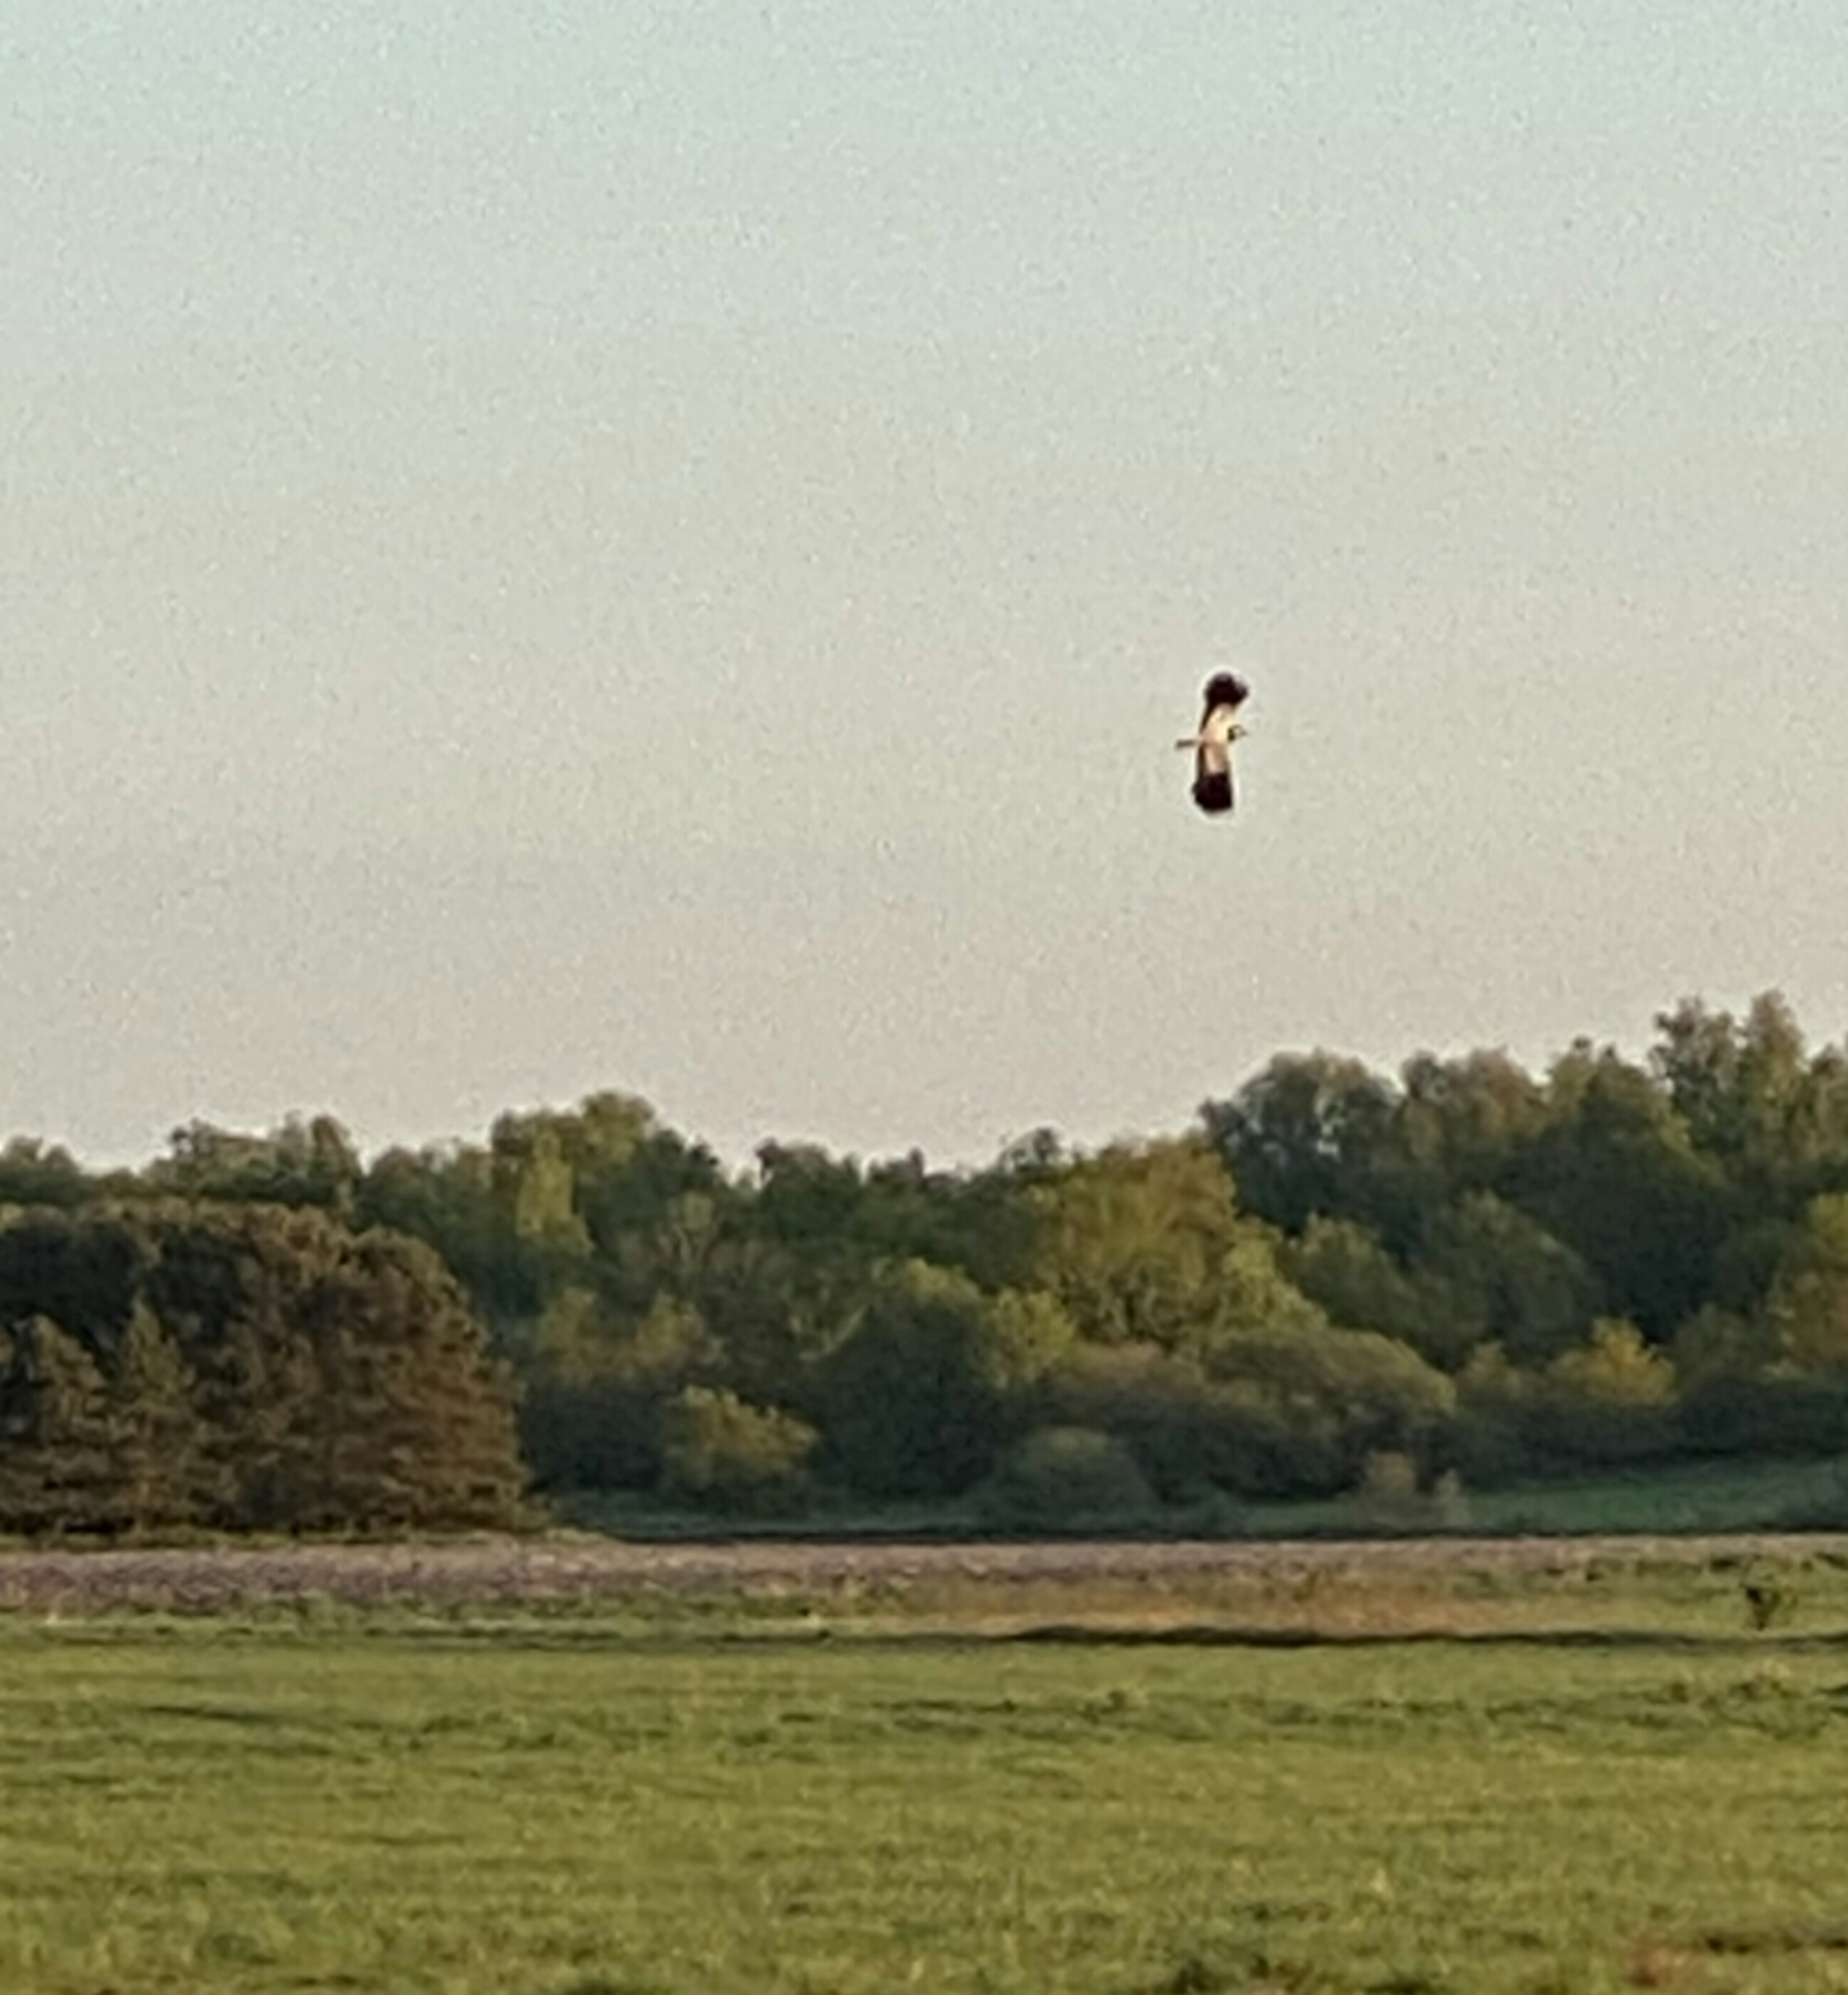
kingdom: Animalia
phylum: Chordata
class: Aves
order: Charadriiformes
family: Charadriidae
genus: Vanellus
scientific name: Vanellus vanellus
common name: Vibe
